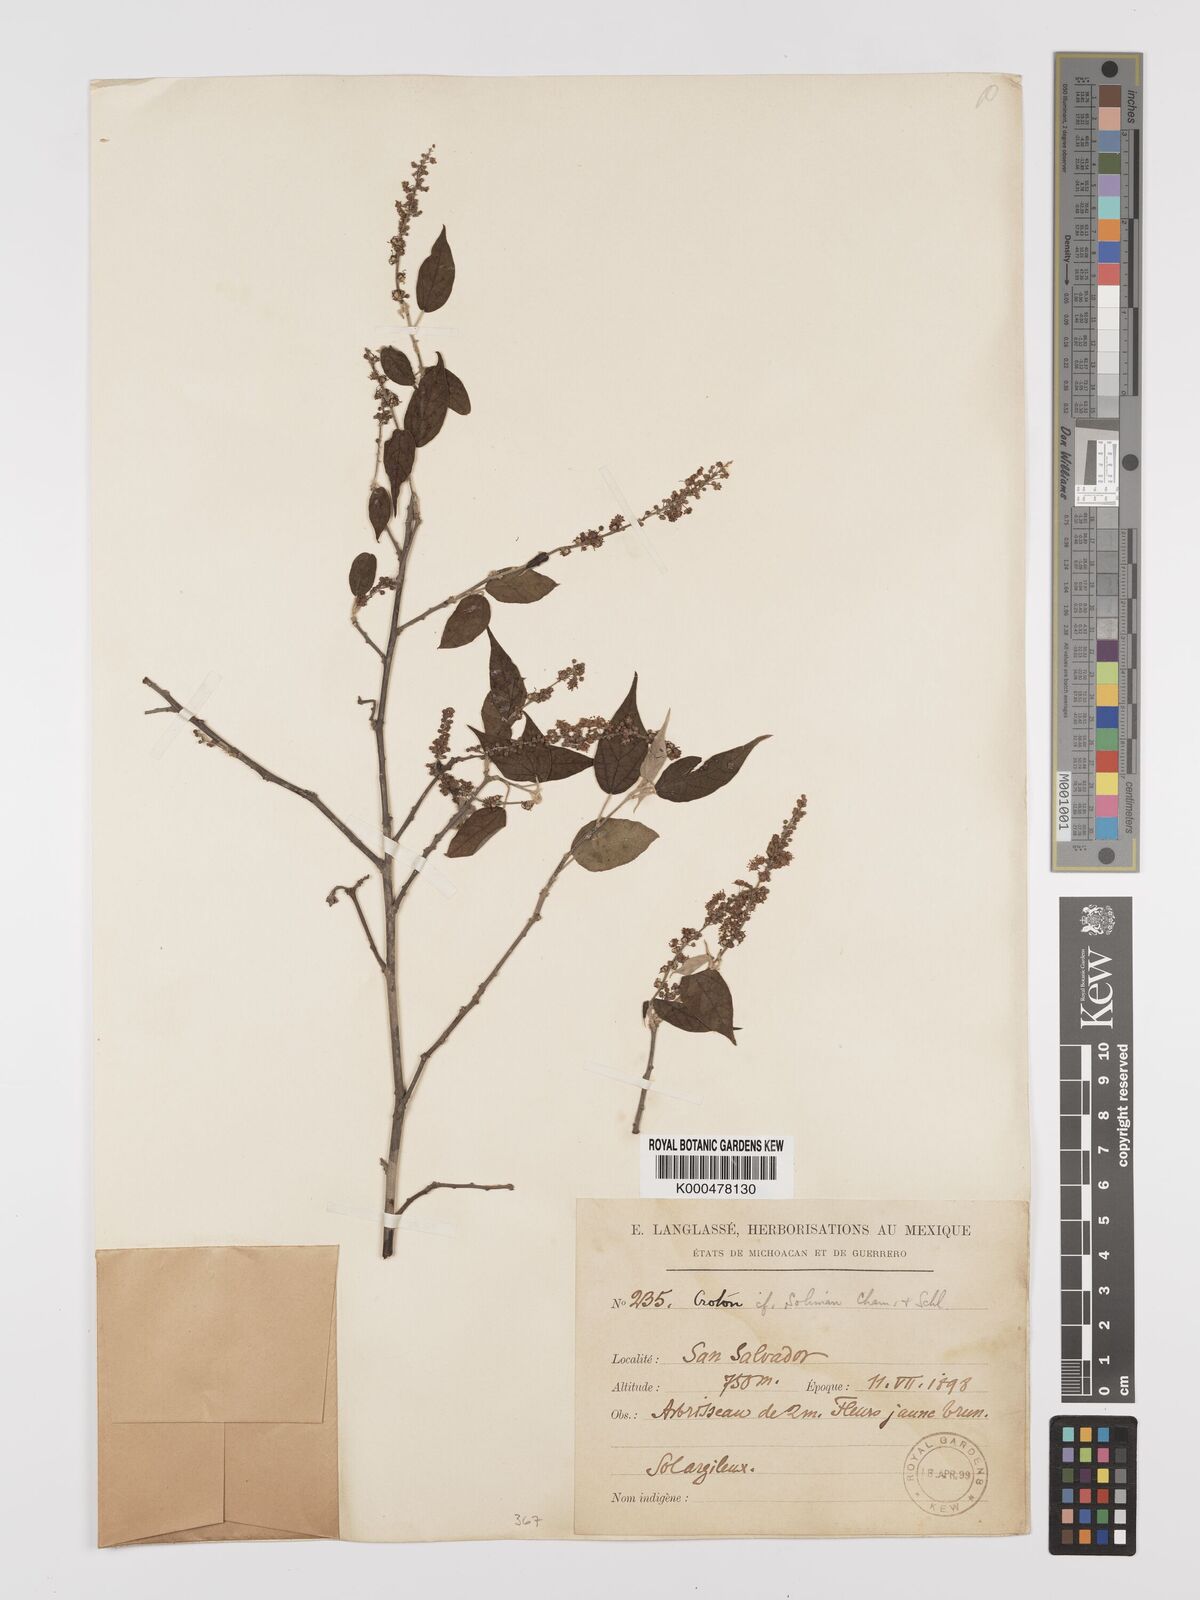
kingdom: Plantae
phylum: Tracheophyta
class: Magnoliopsida
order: Malpighiales
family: Euphorbiaceae
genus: Croton
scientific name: Croton soliman
